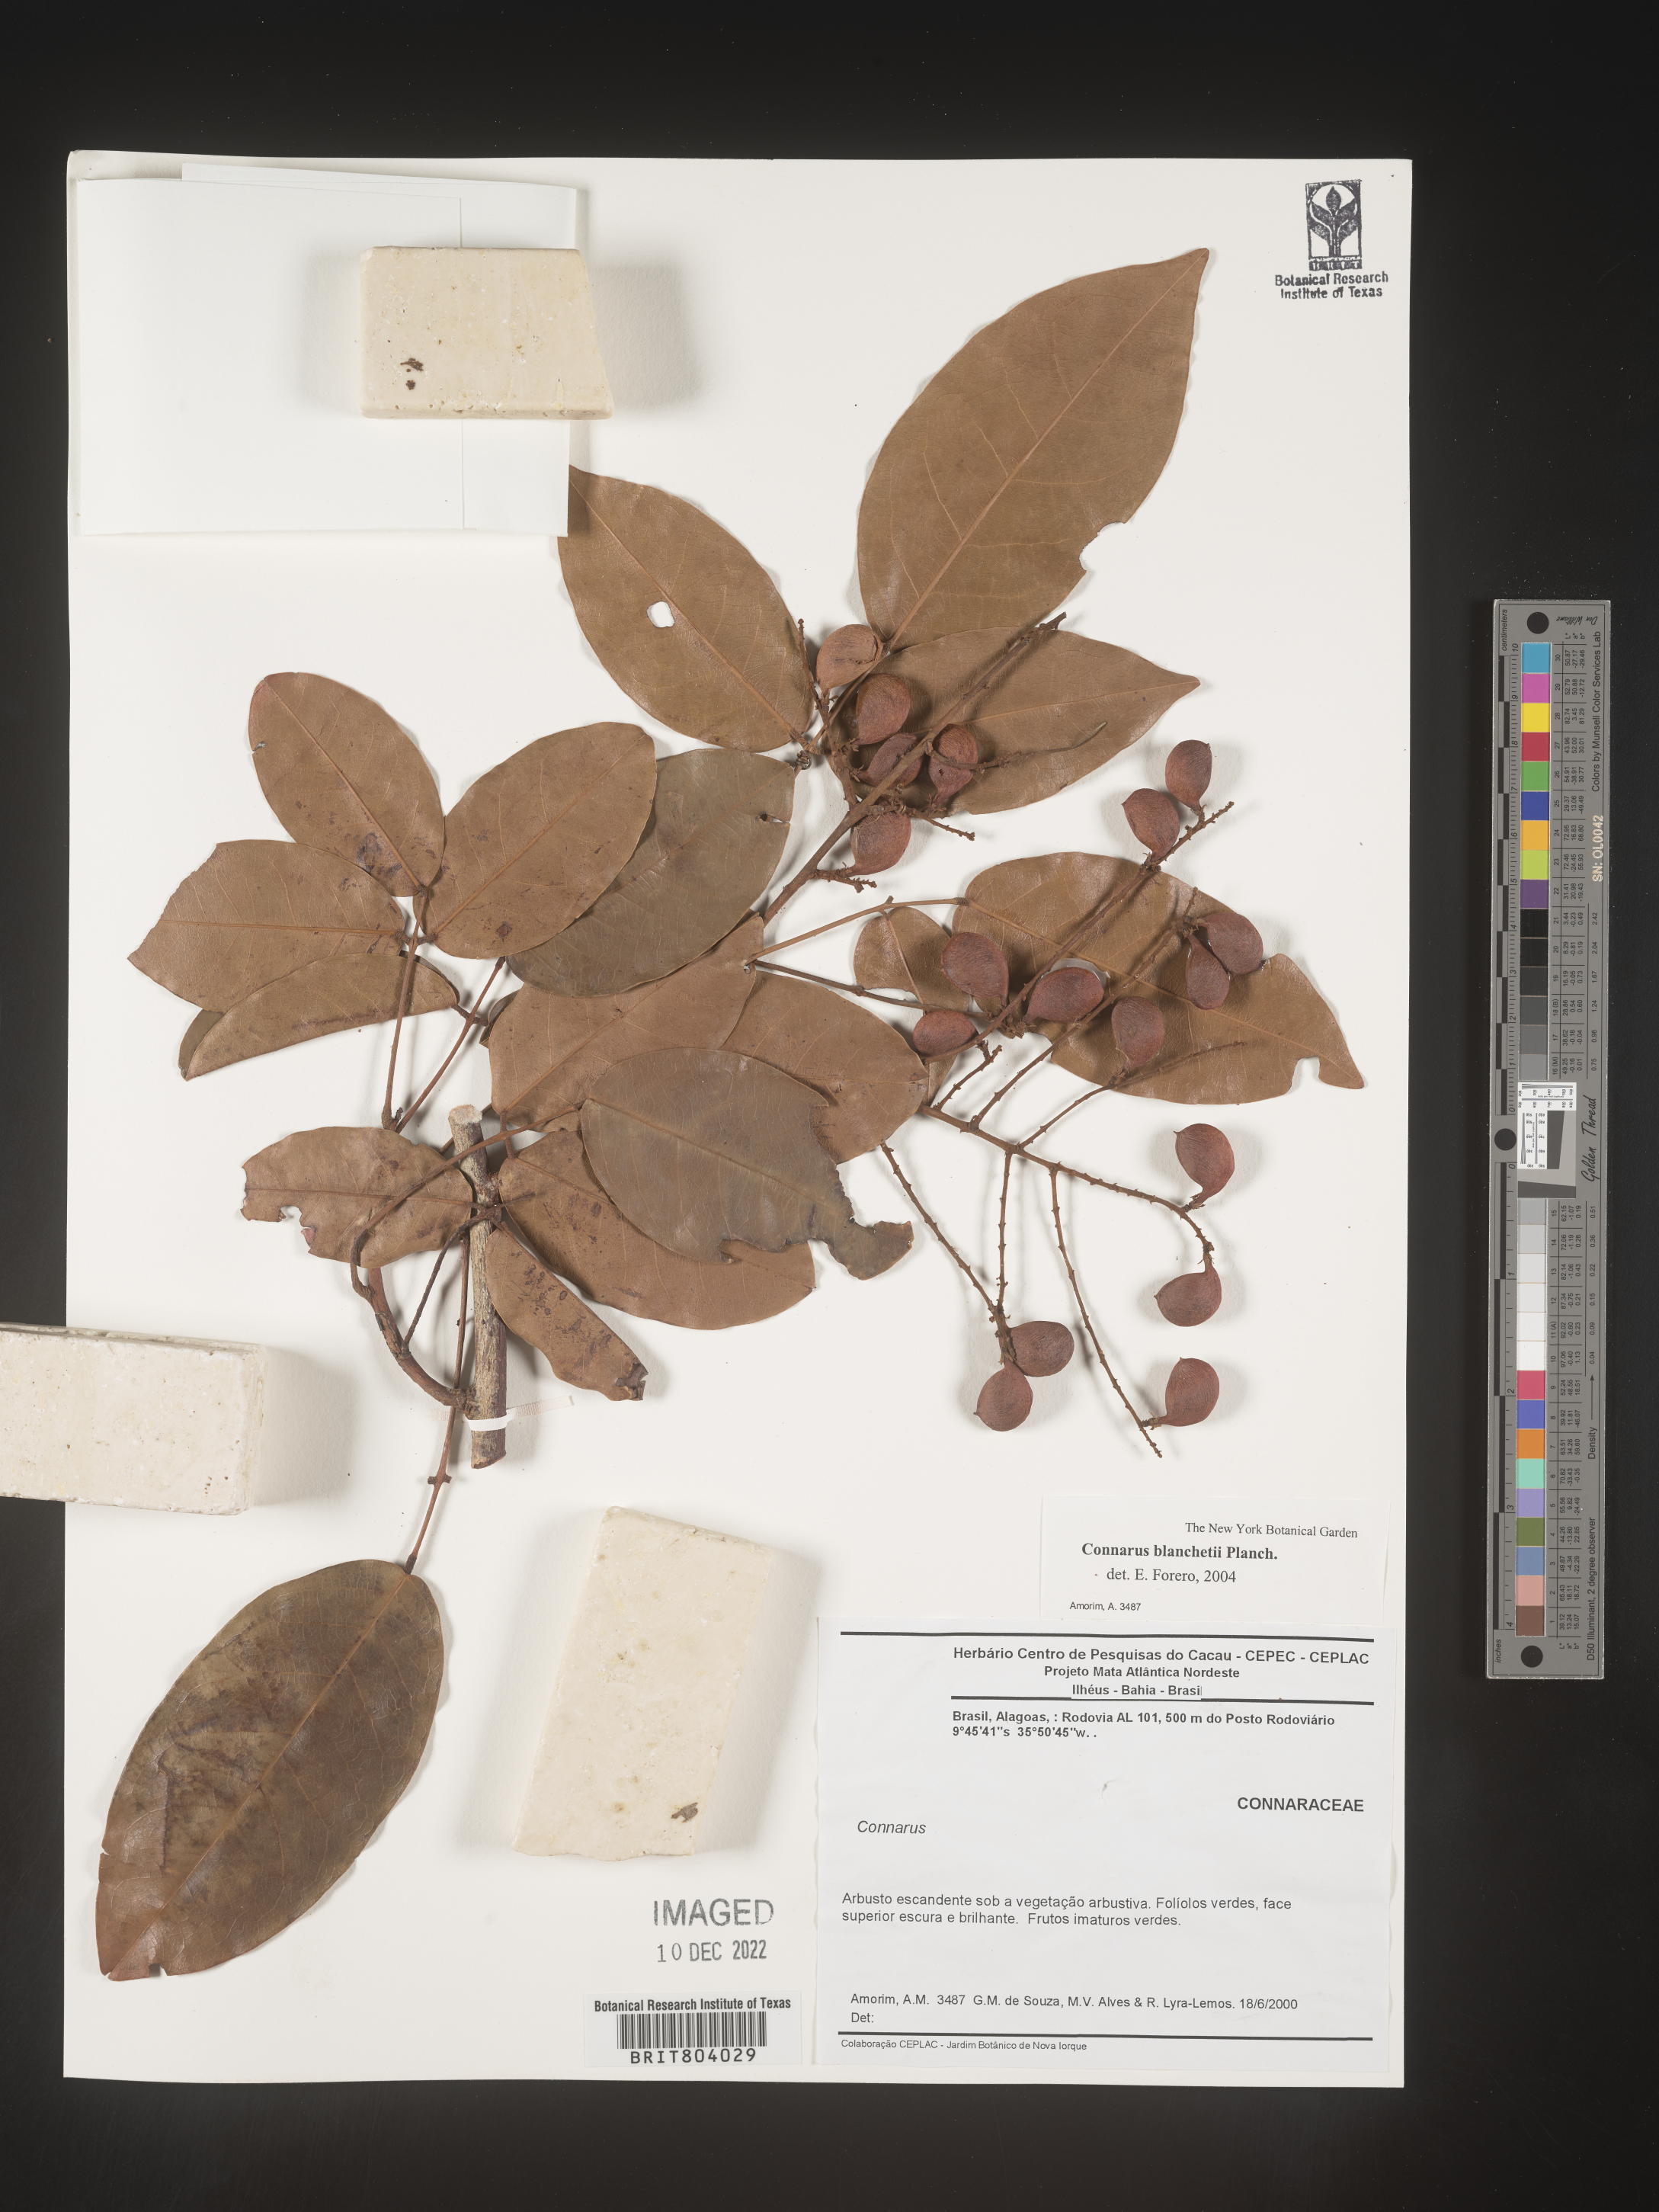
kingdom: Plantae
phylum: Tracheophyta
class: Magnoliopsida
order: Oxalidales
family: Connaraceae
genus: Connarus
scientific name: Connarus
